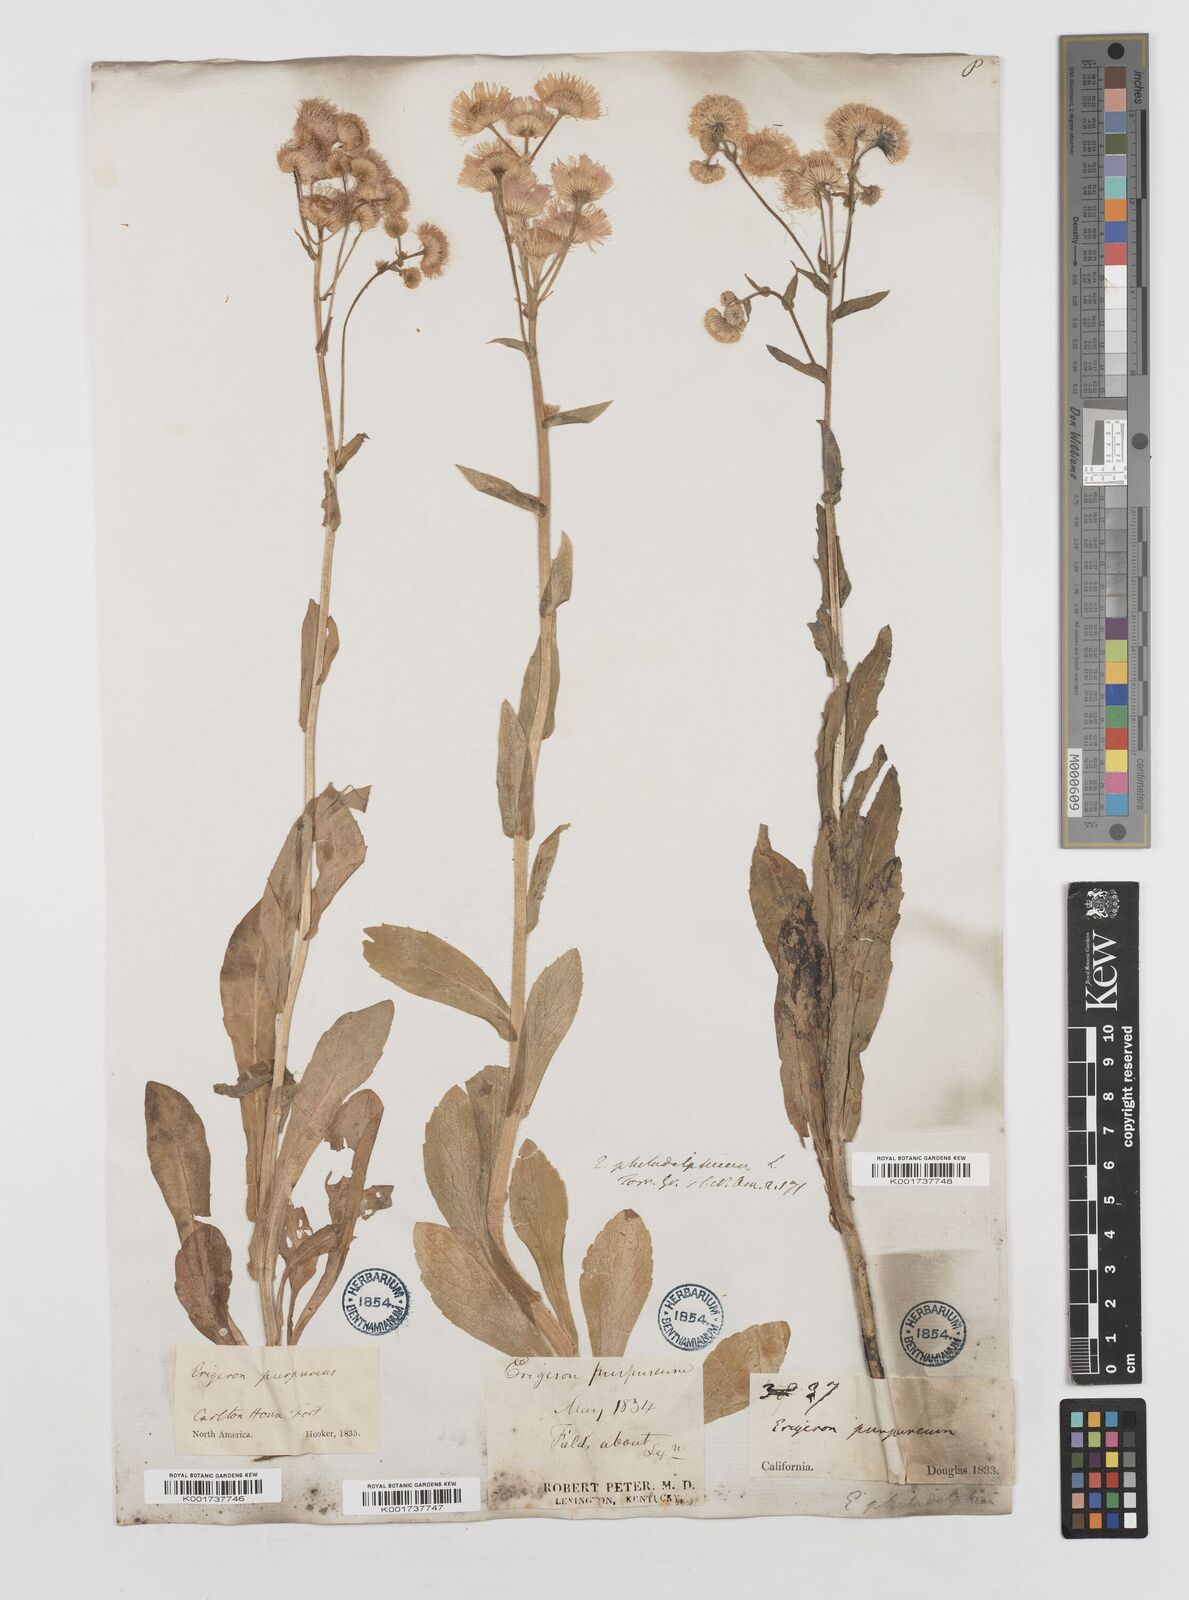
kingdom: Plantae
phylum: Tracheophyta
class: Magnoliopsida
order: Asterales
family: Asteraceae
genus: Erigeron
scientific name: Erigeron philadelphicus
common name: Robin's-plantain
